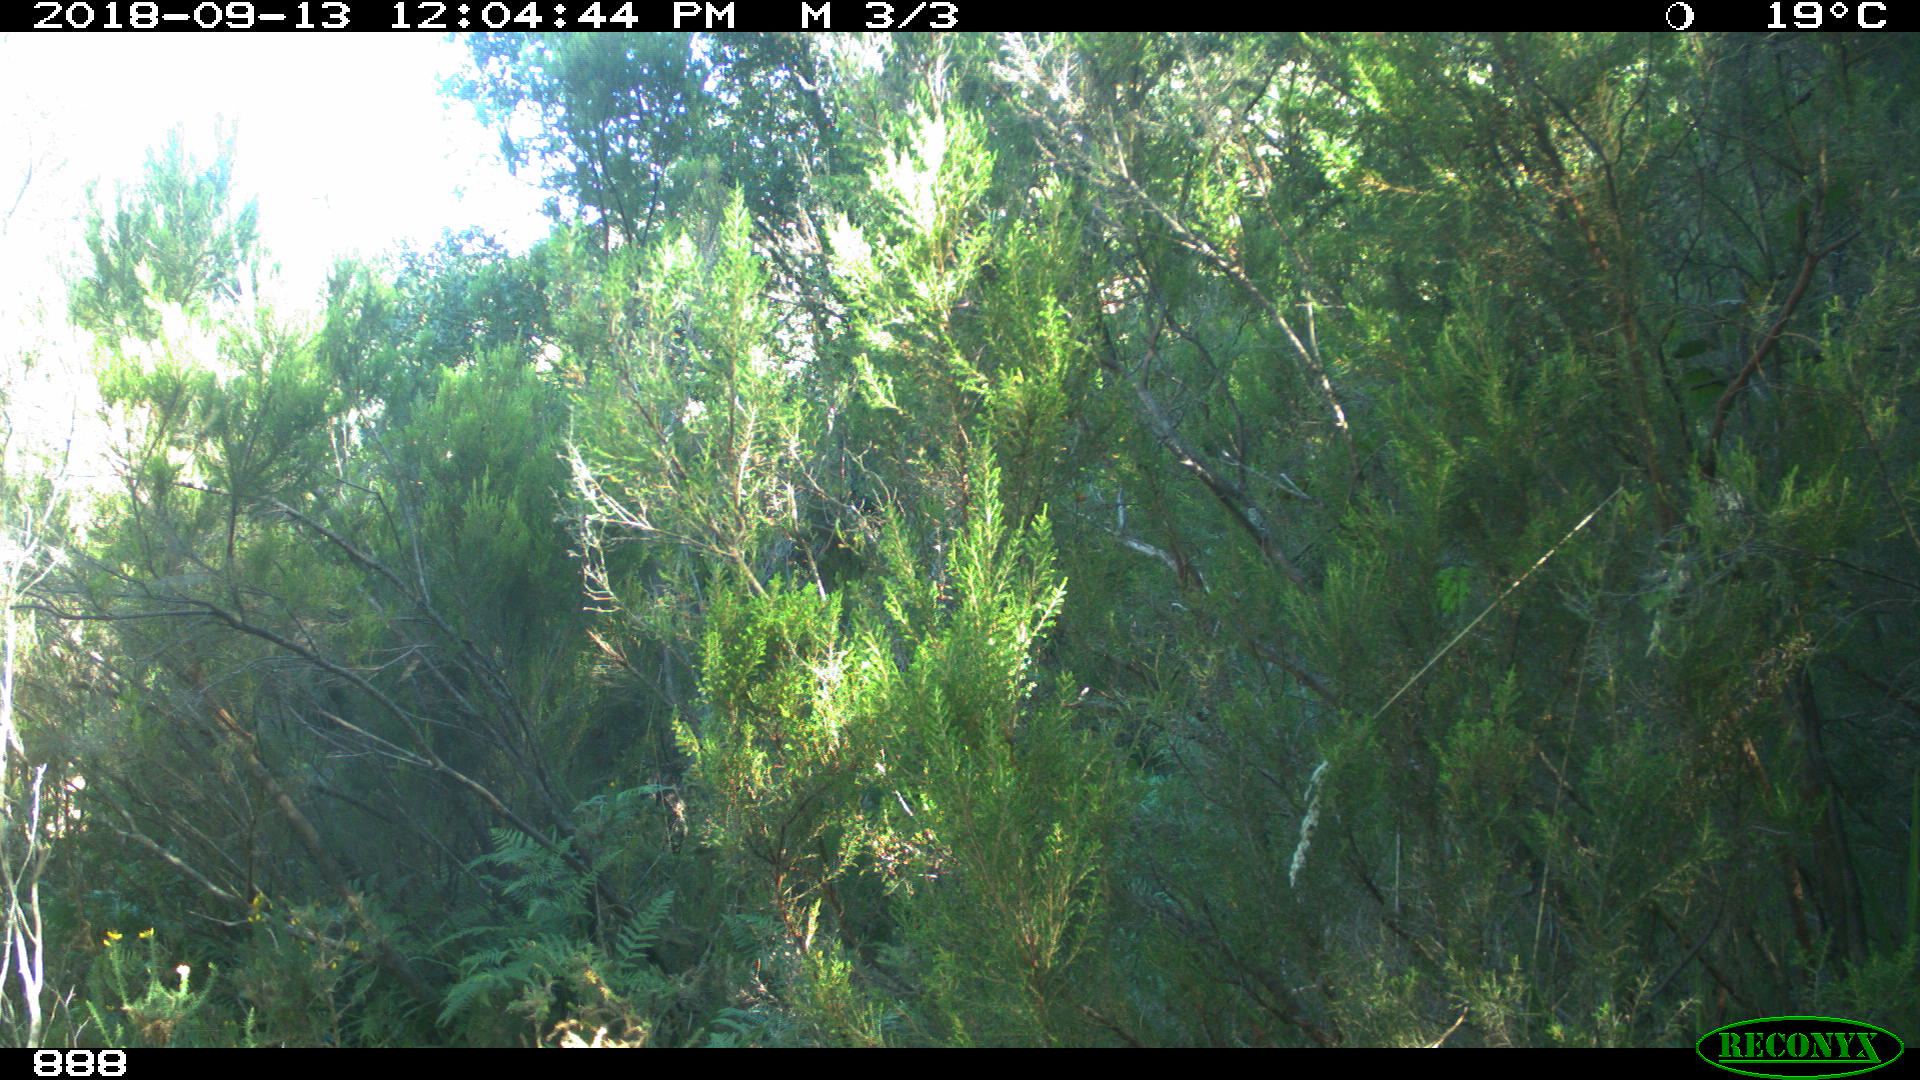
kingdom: Animalia
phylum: Chordata
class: Mammalia
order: Artiodactyla
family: Bovidae
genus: Bos
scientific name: Bos taurus
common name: Domesticated cattle
